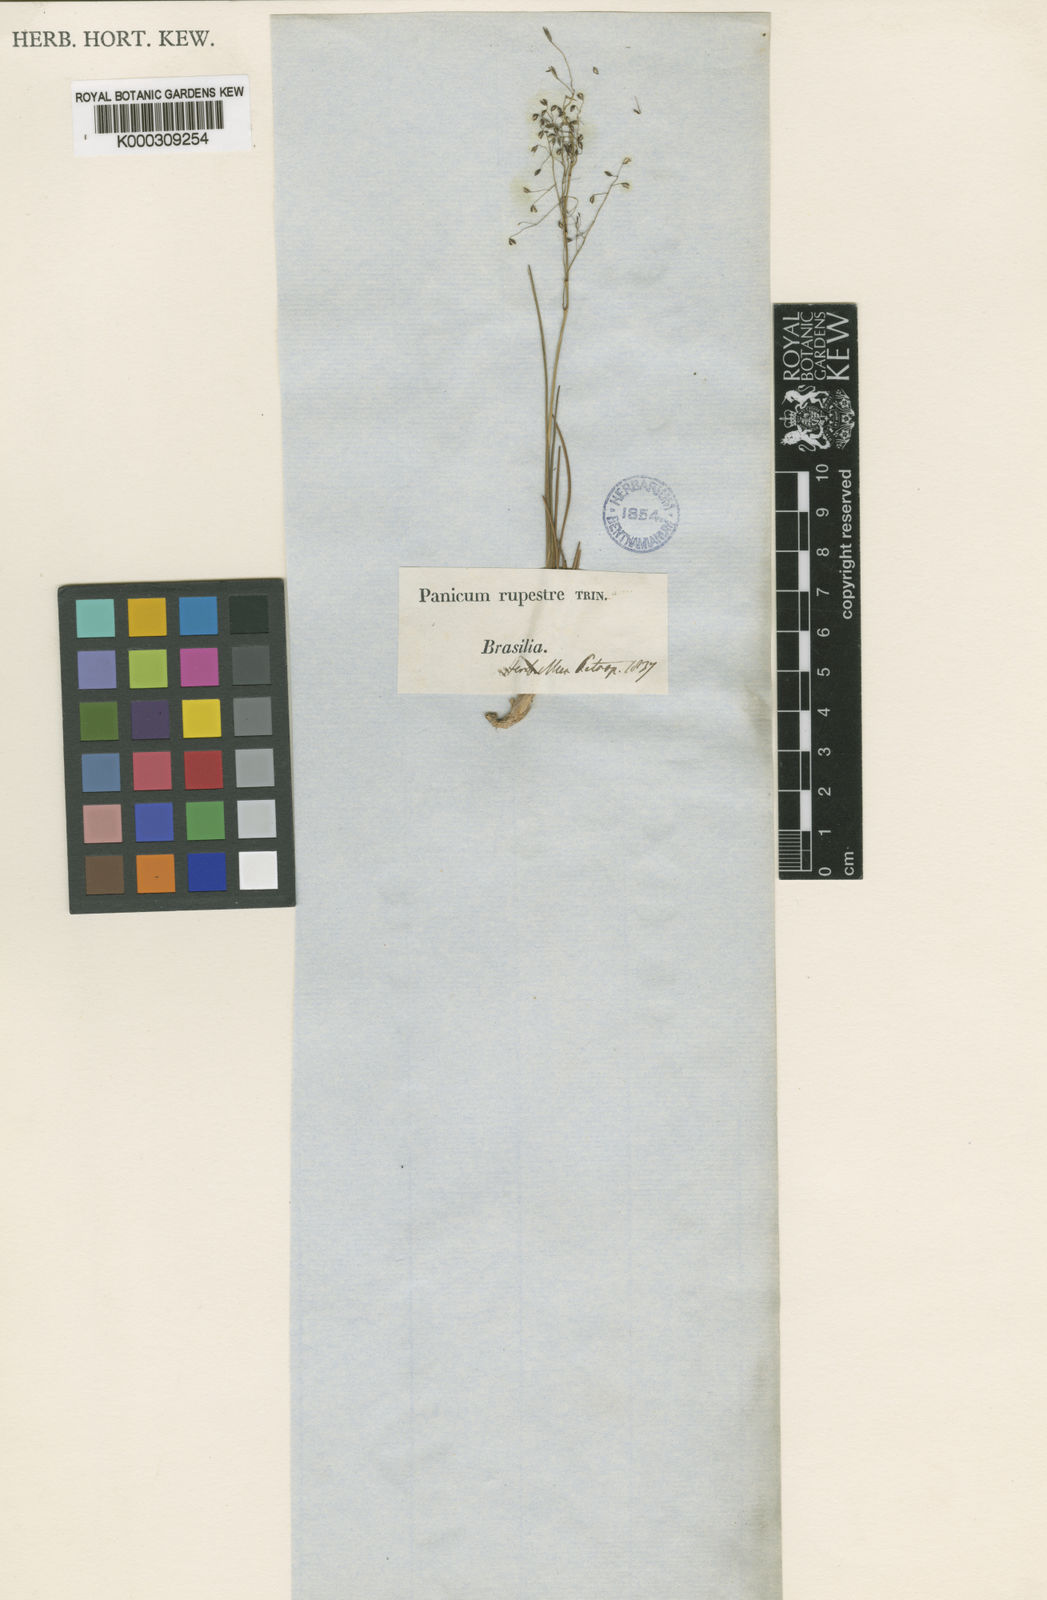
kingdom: Plantae
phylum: Tracheophyta
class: Liliopsida
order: Poales
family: Poaceae
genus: Panicum
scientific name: Panicum rupestre
